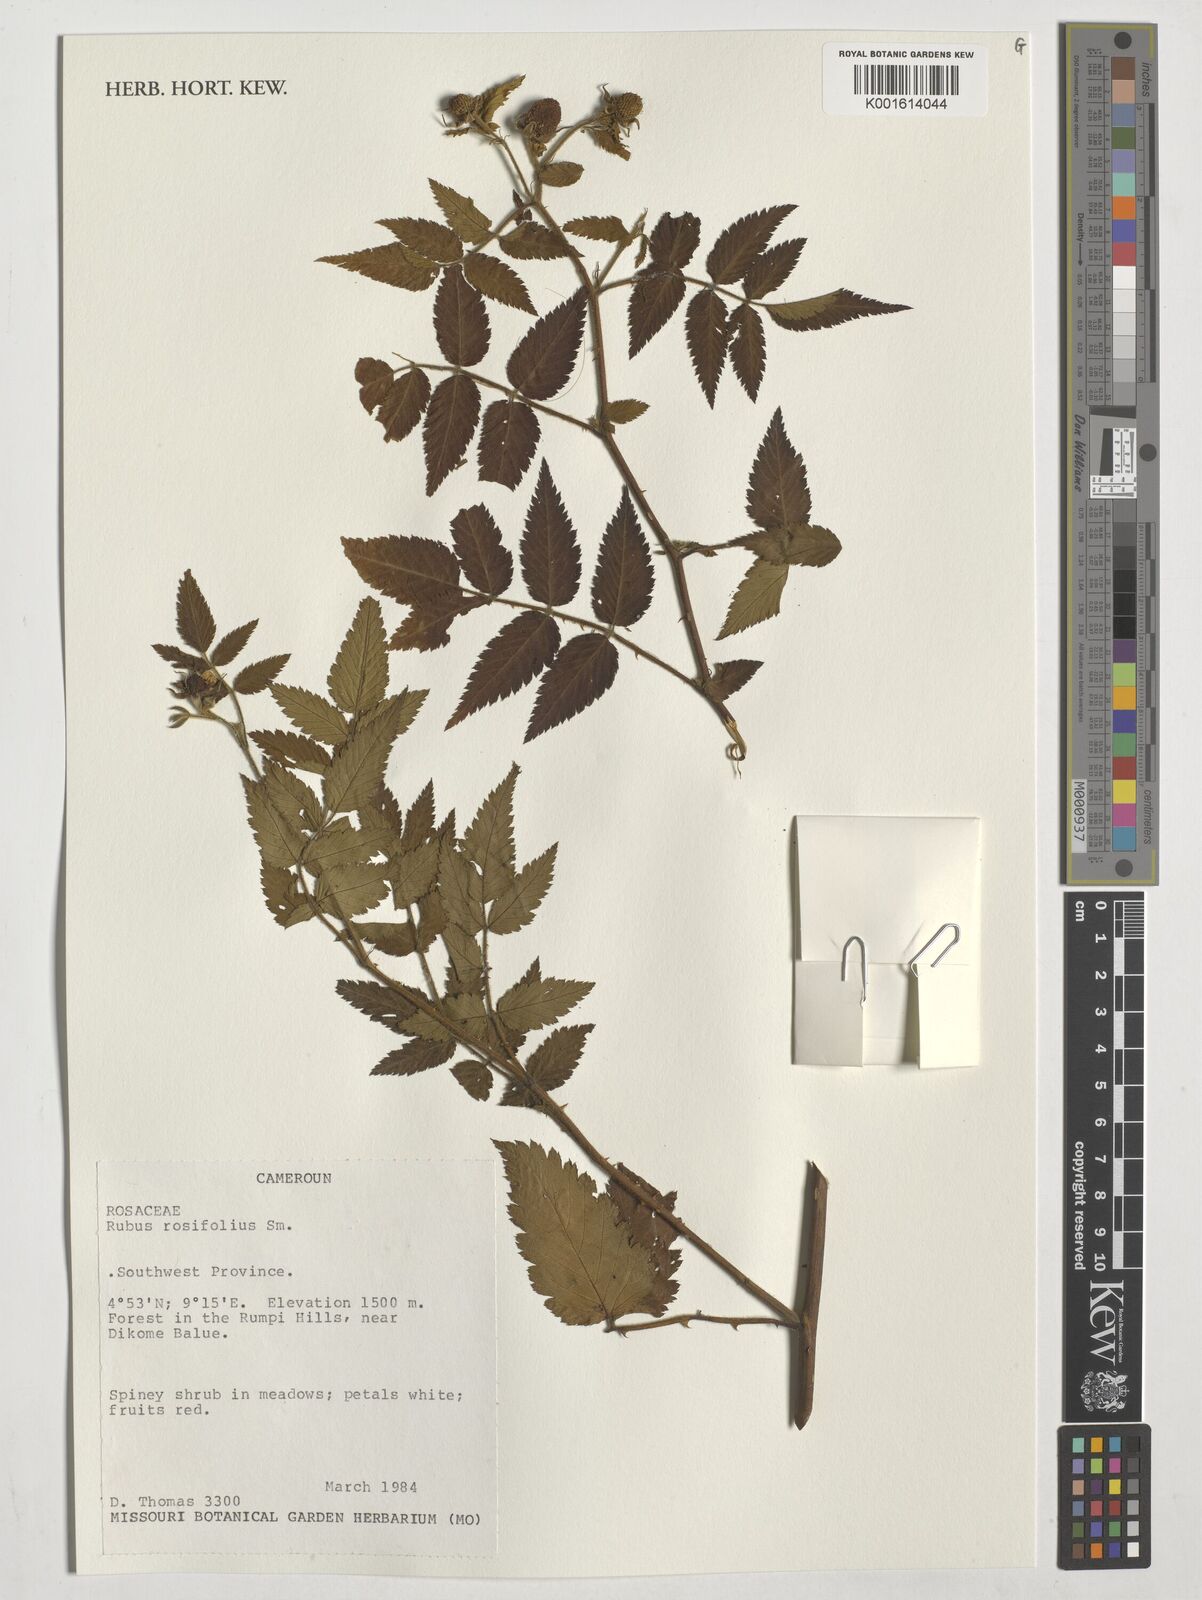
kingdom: Plantae
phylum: Tracheophyta
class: Magnoliopsida
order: Rosales
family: Rosaceae
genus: Rubus
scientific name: Rubus rosifolius
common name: Roseleaf raspberry
